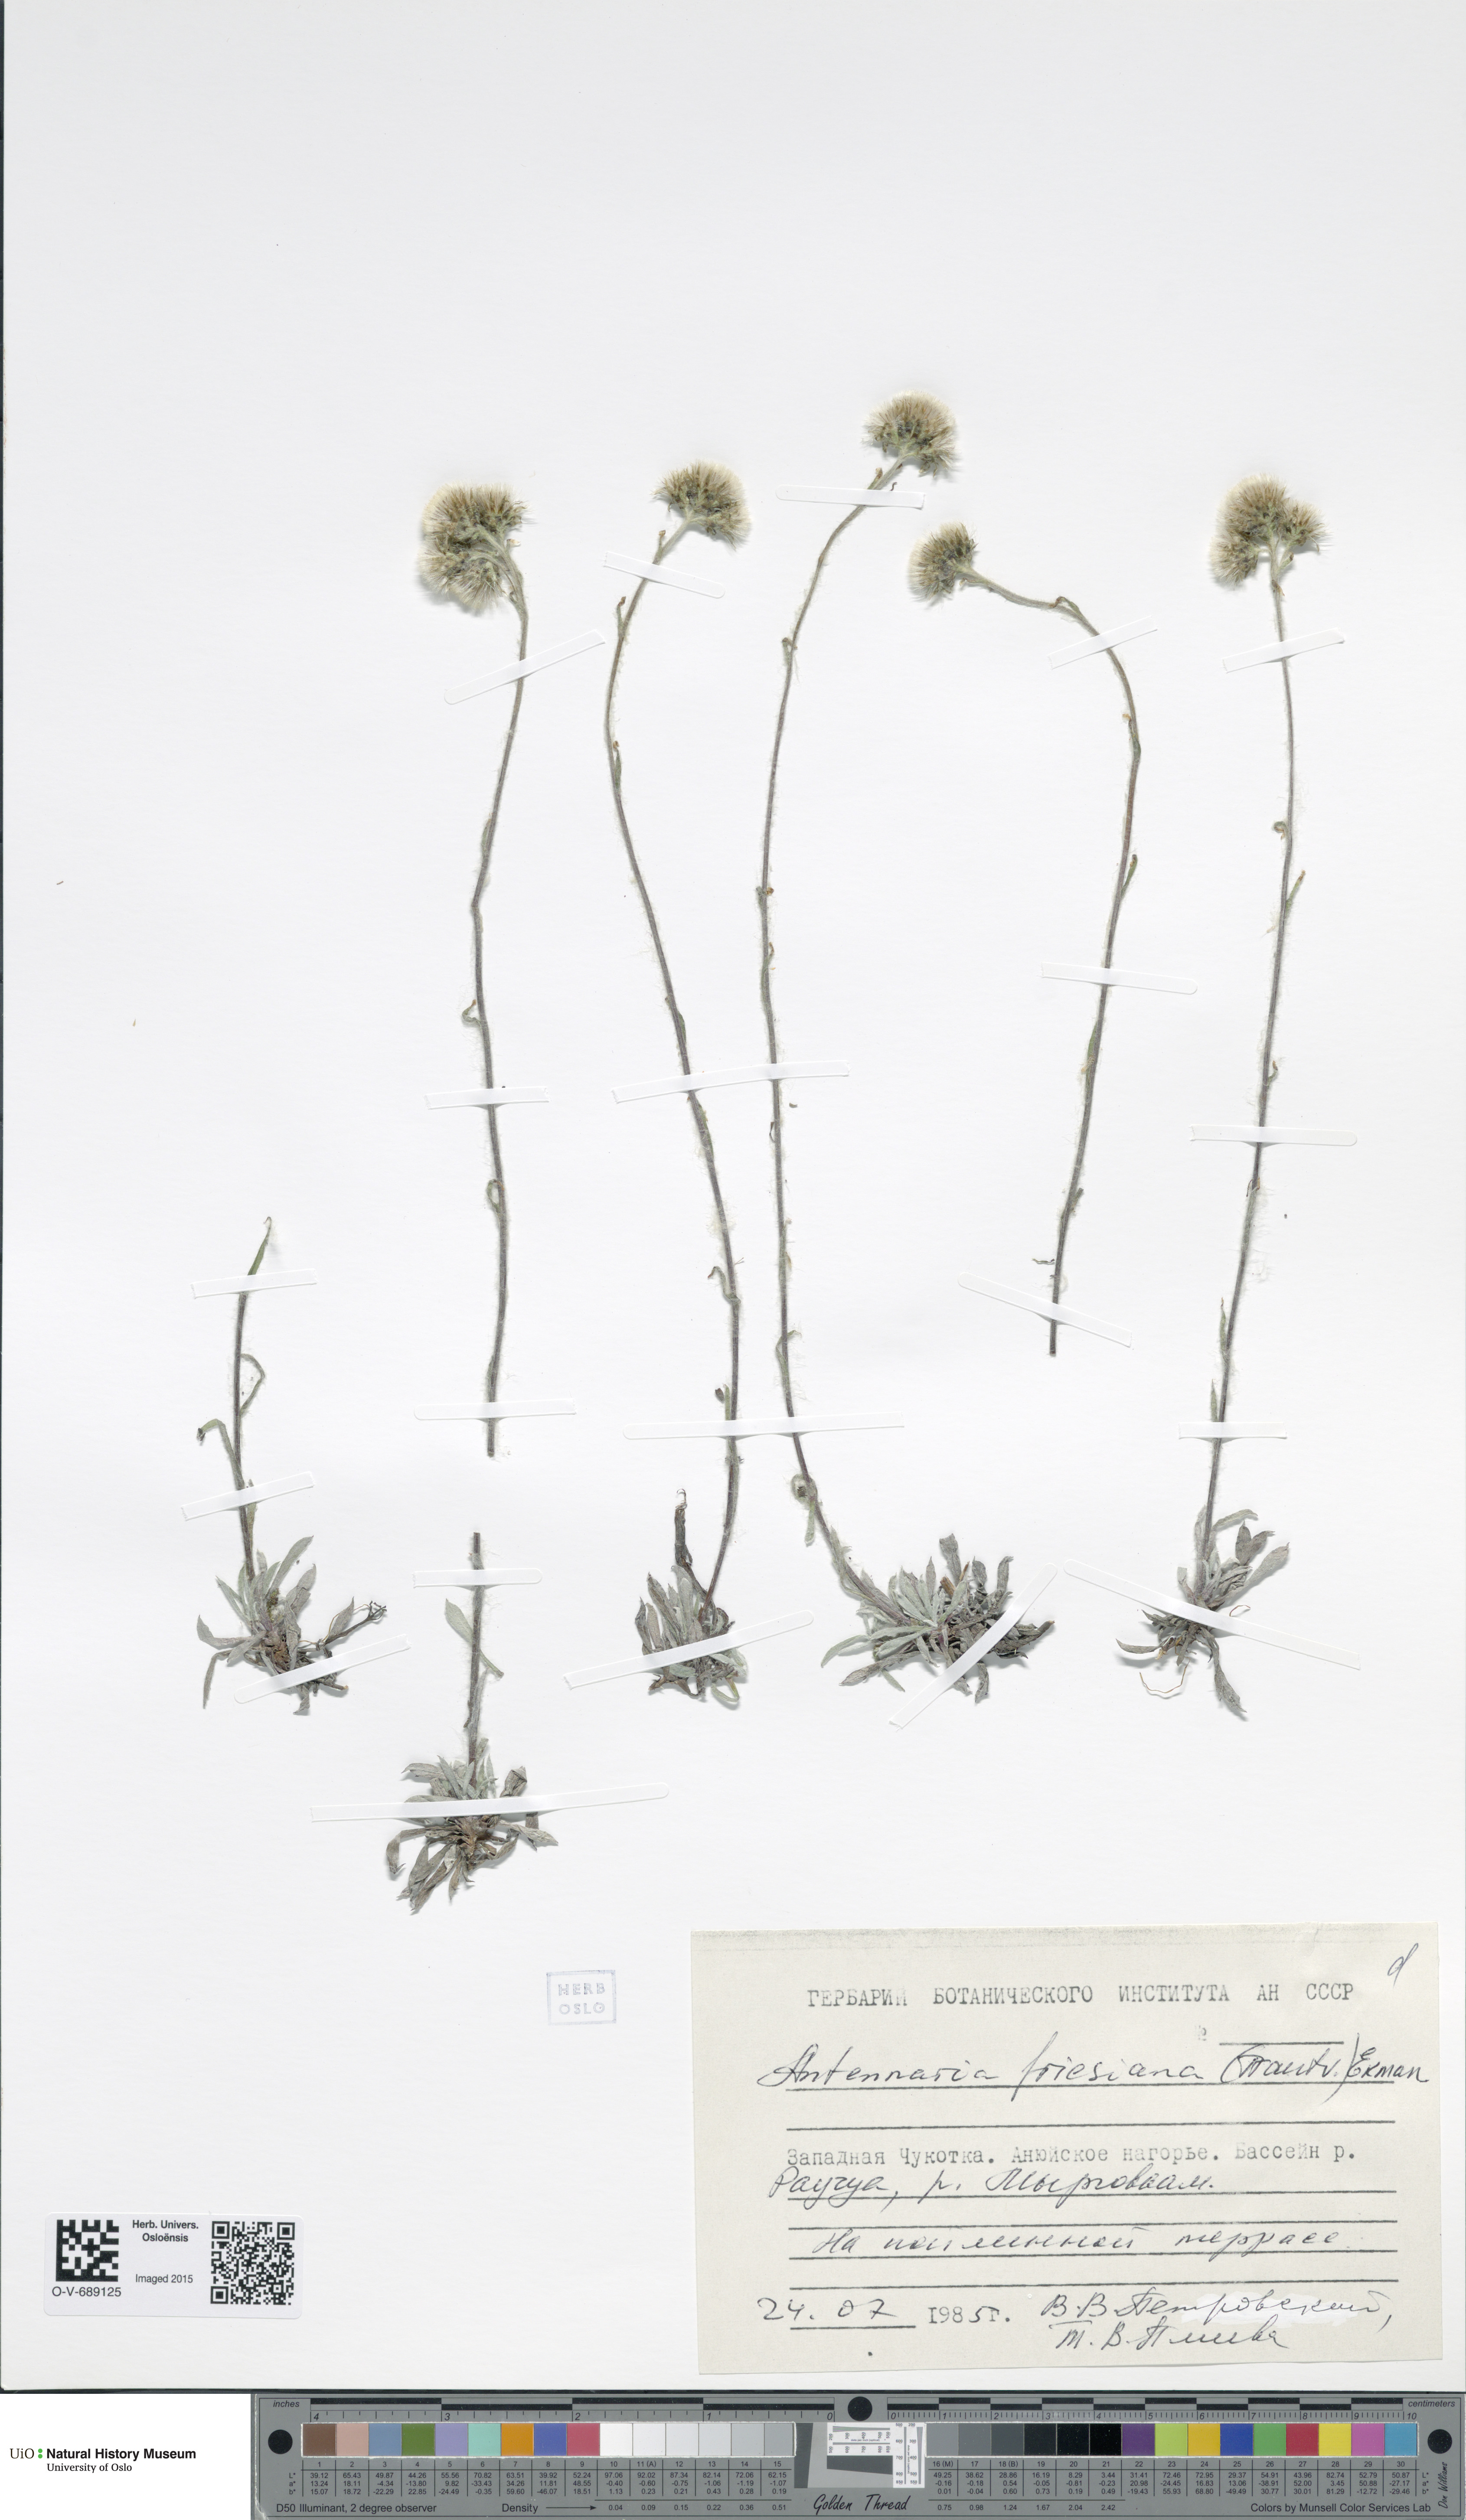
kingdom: Plantae
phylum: Tracheophyta
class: Magnoliopsida
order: Asterales
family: Asteraceae
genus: Antennaria
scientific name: Antennaria friesiana
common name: Fries' pussytoes
